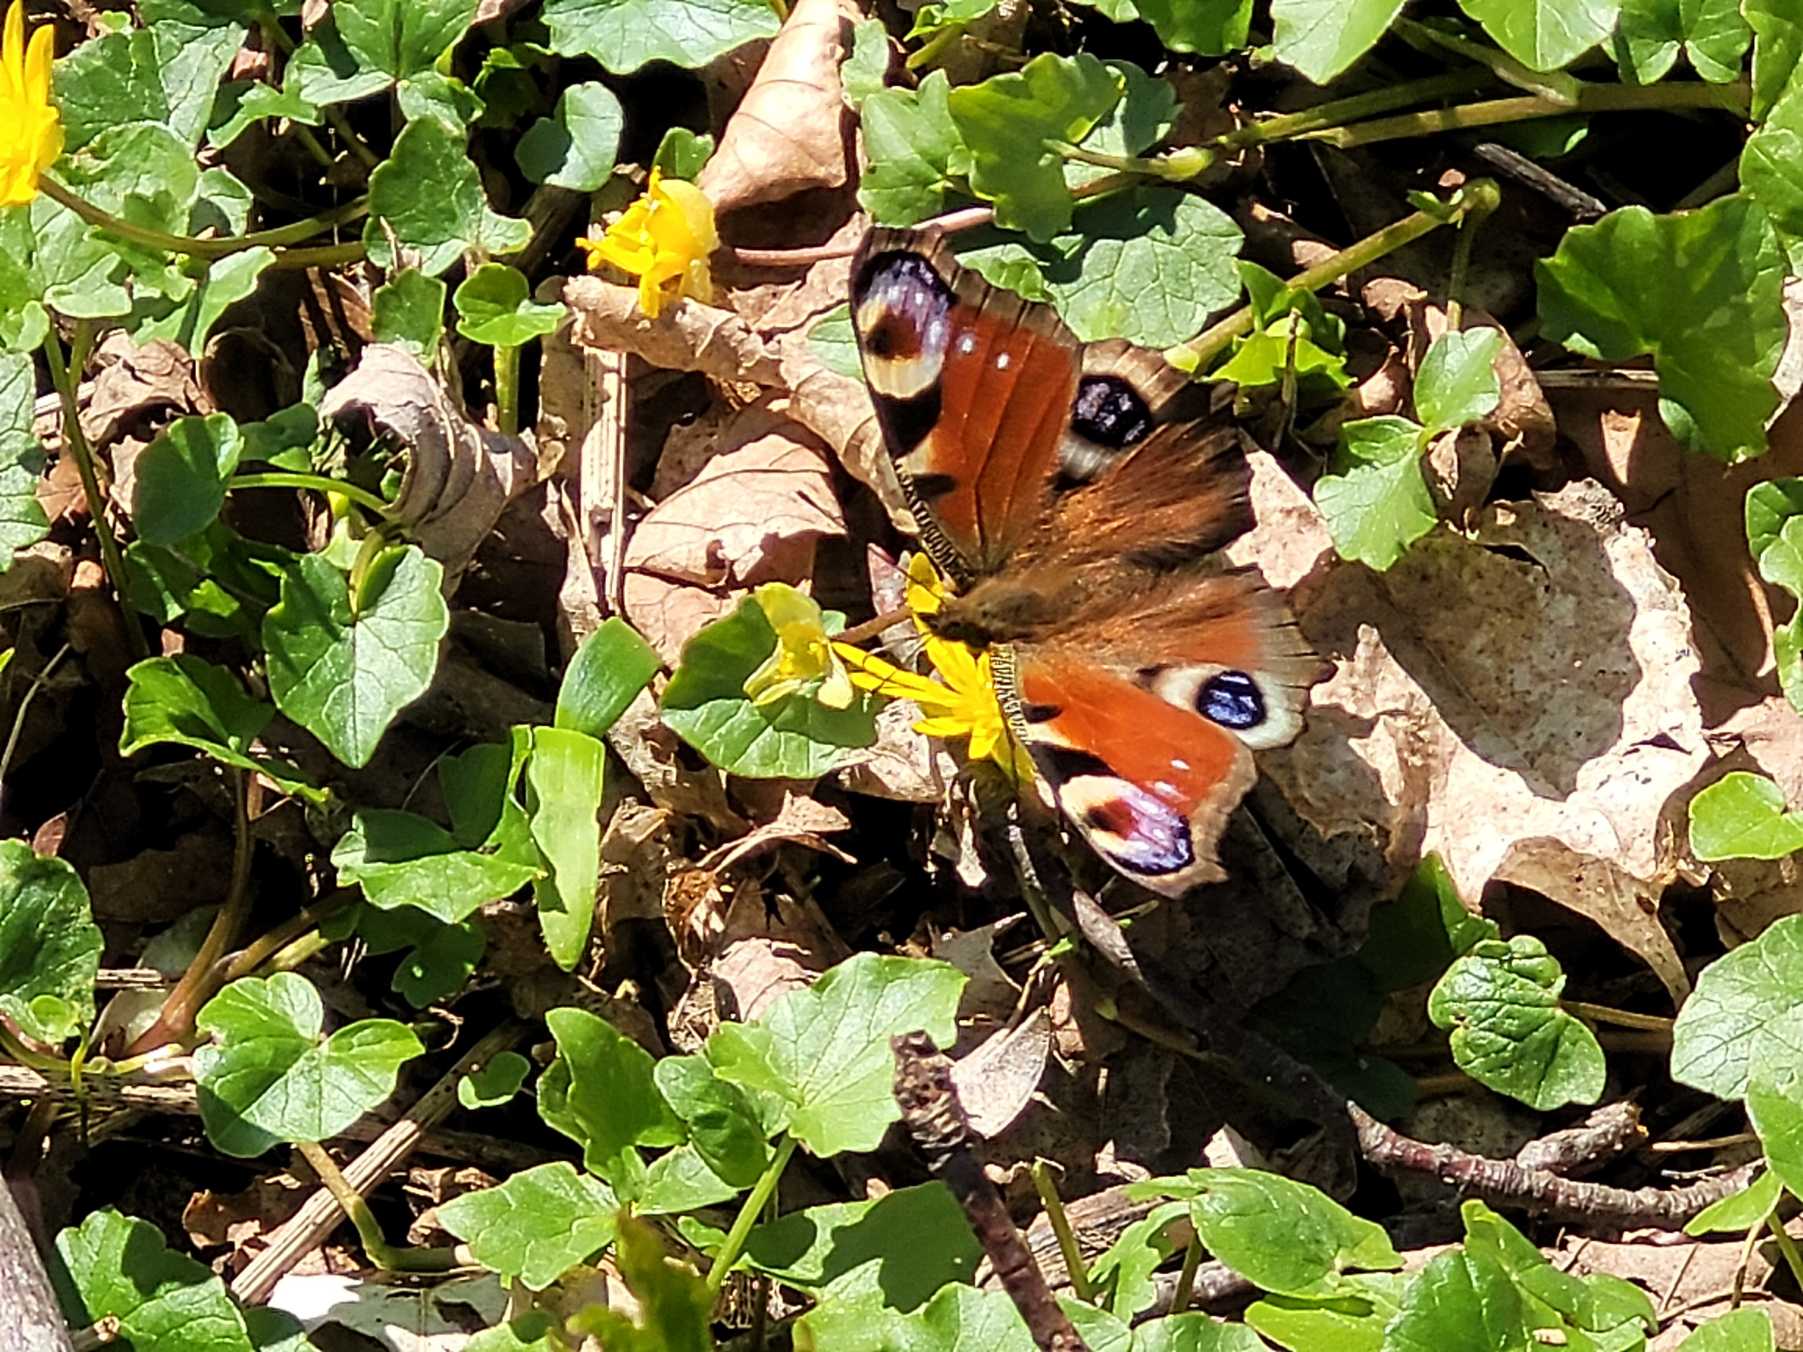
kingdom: Animalia
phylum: Arthropoda
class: Insecta
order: Lepidoptera
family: Nymphalidae
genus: Aglais
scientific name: Aglais io
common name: Dagpåfugleøje
